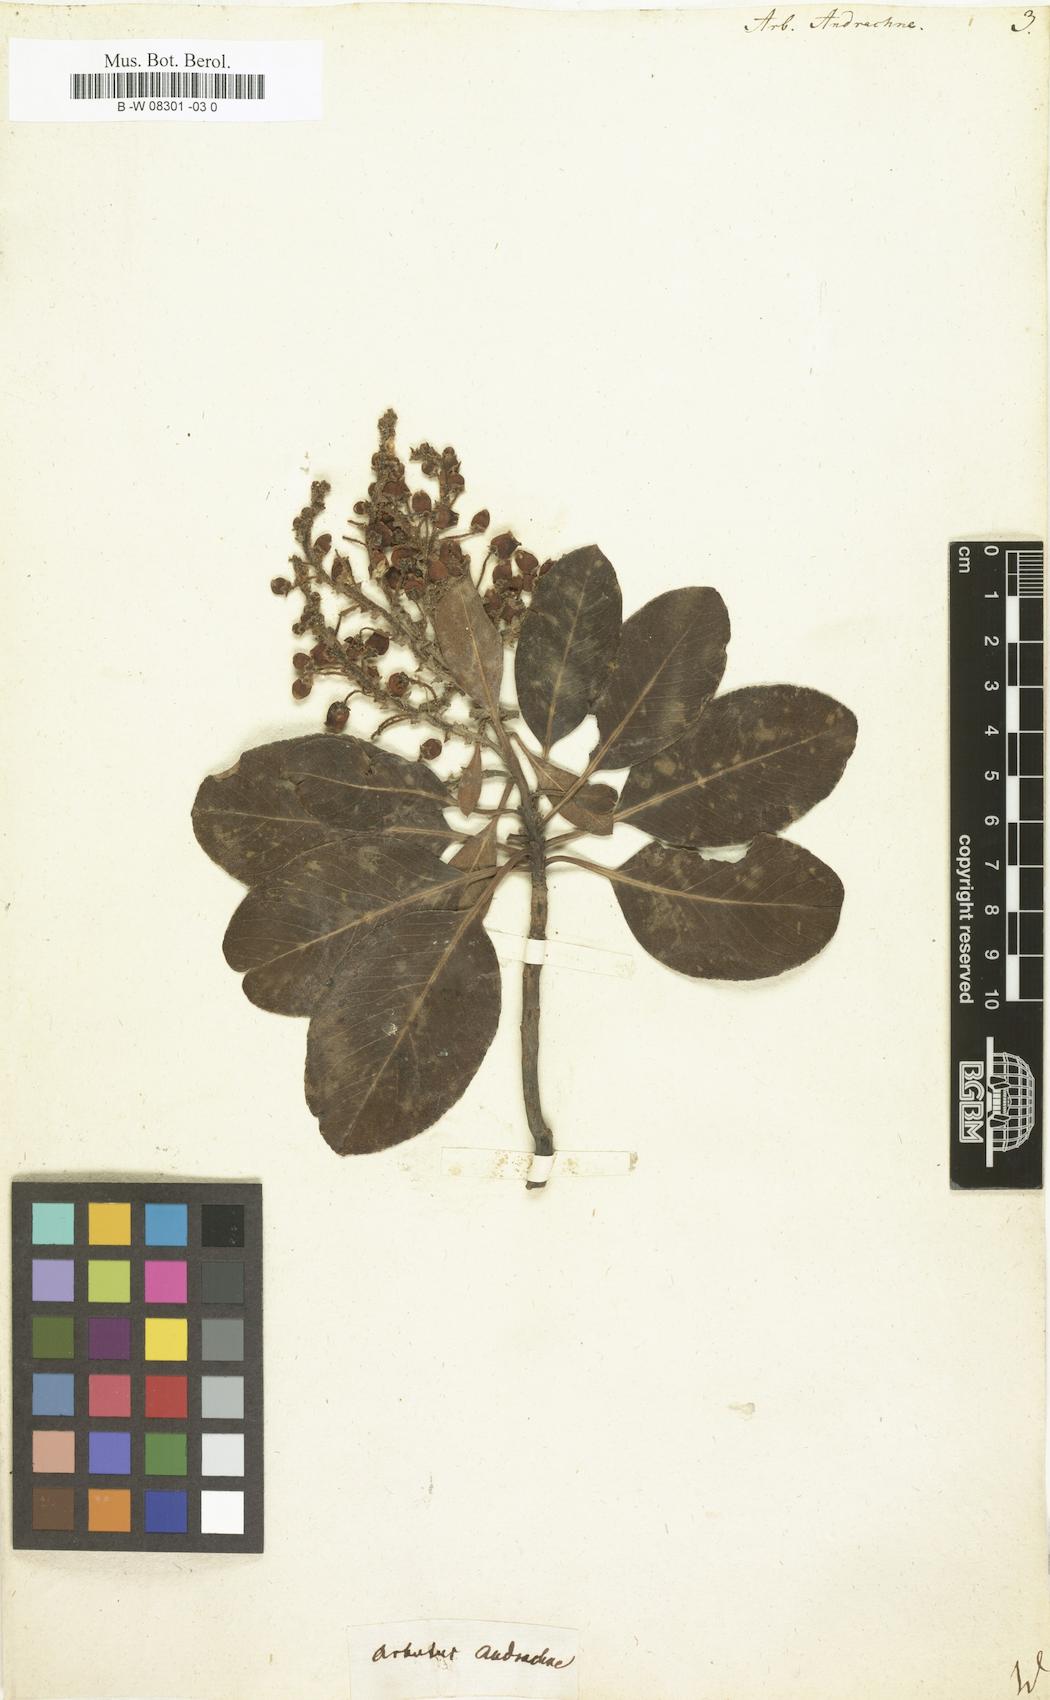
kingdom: Plantae
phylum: Tracheophyta
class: Magnoliopsida
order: Ericales
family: Ericaceae
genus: Arbutus
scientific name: Arbutus andrachne
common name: Greek strawberry tree
